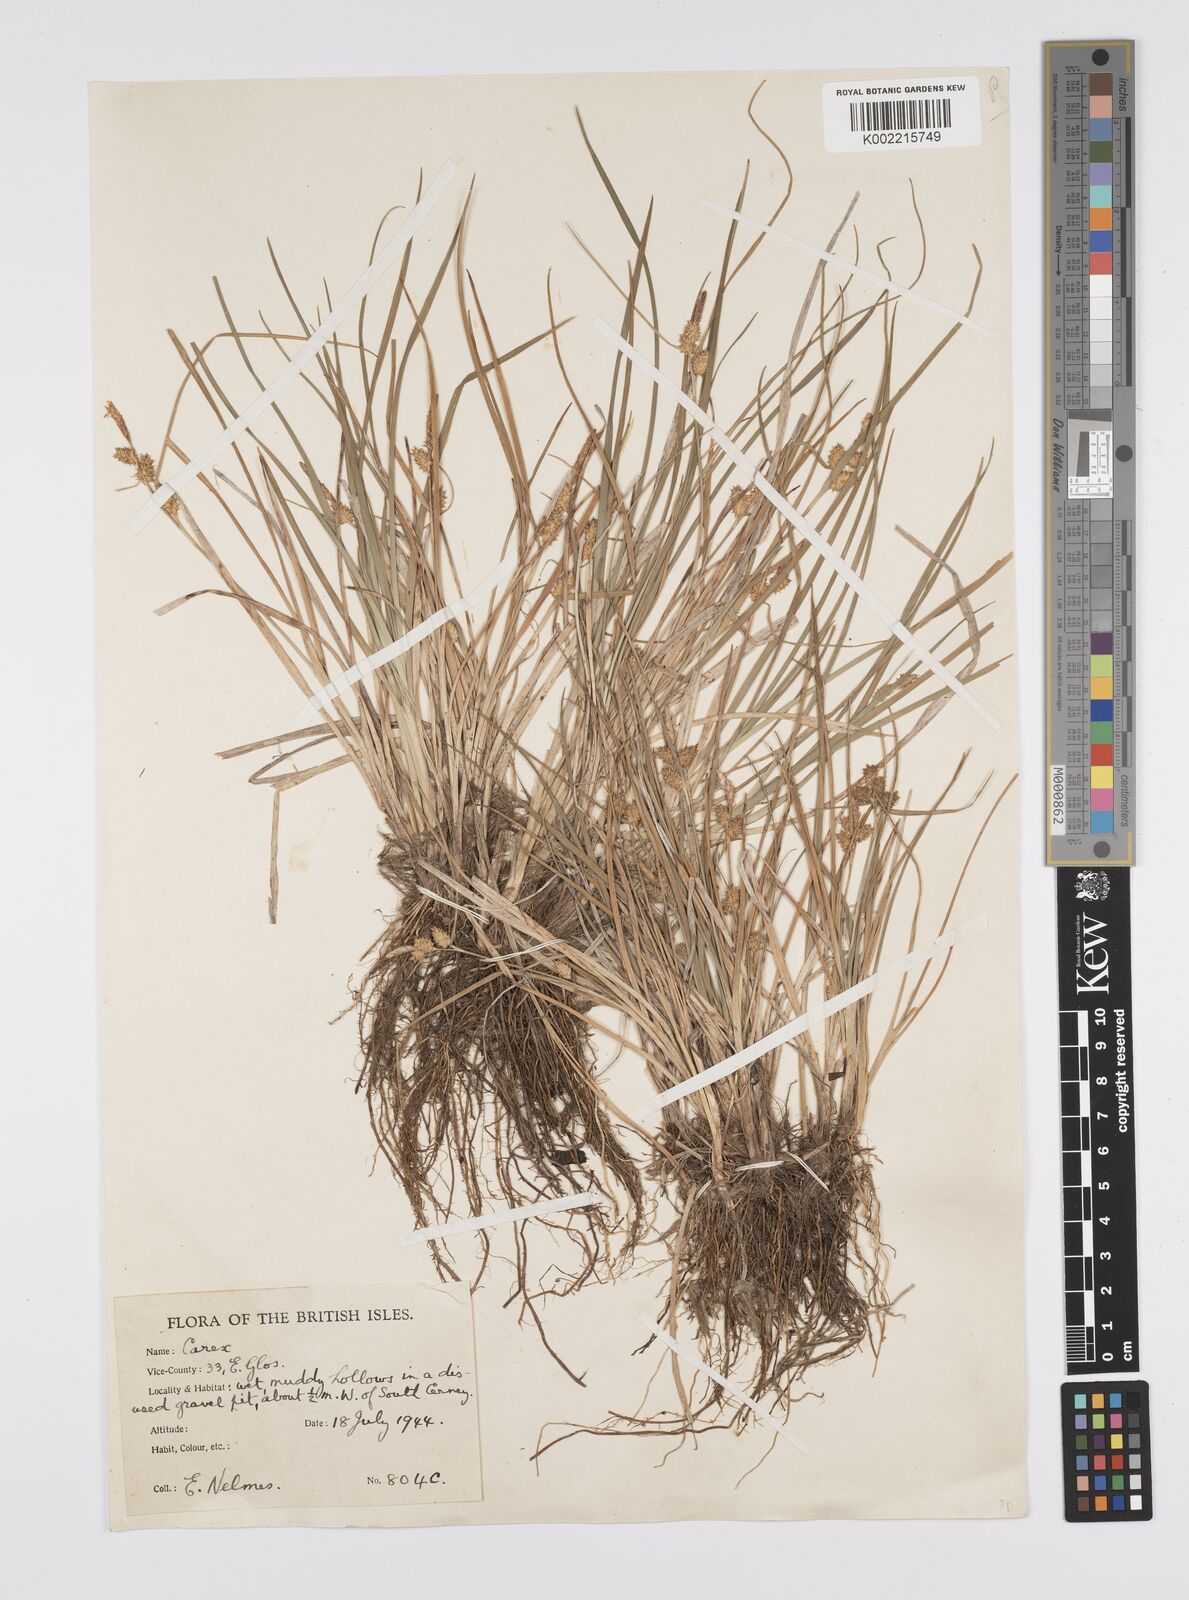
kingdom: Plantae
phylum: Tracheophyta
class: Liliopsida
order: Poales
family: Cyperaceae
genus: Carex
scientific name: Carex
